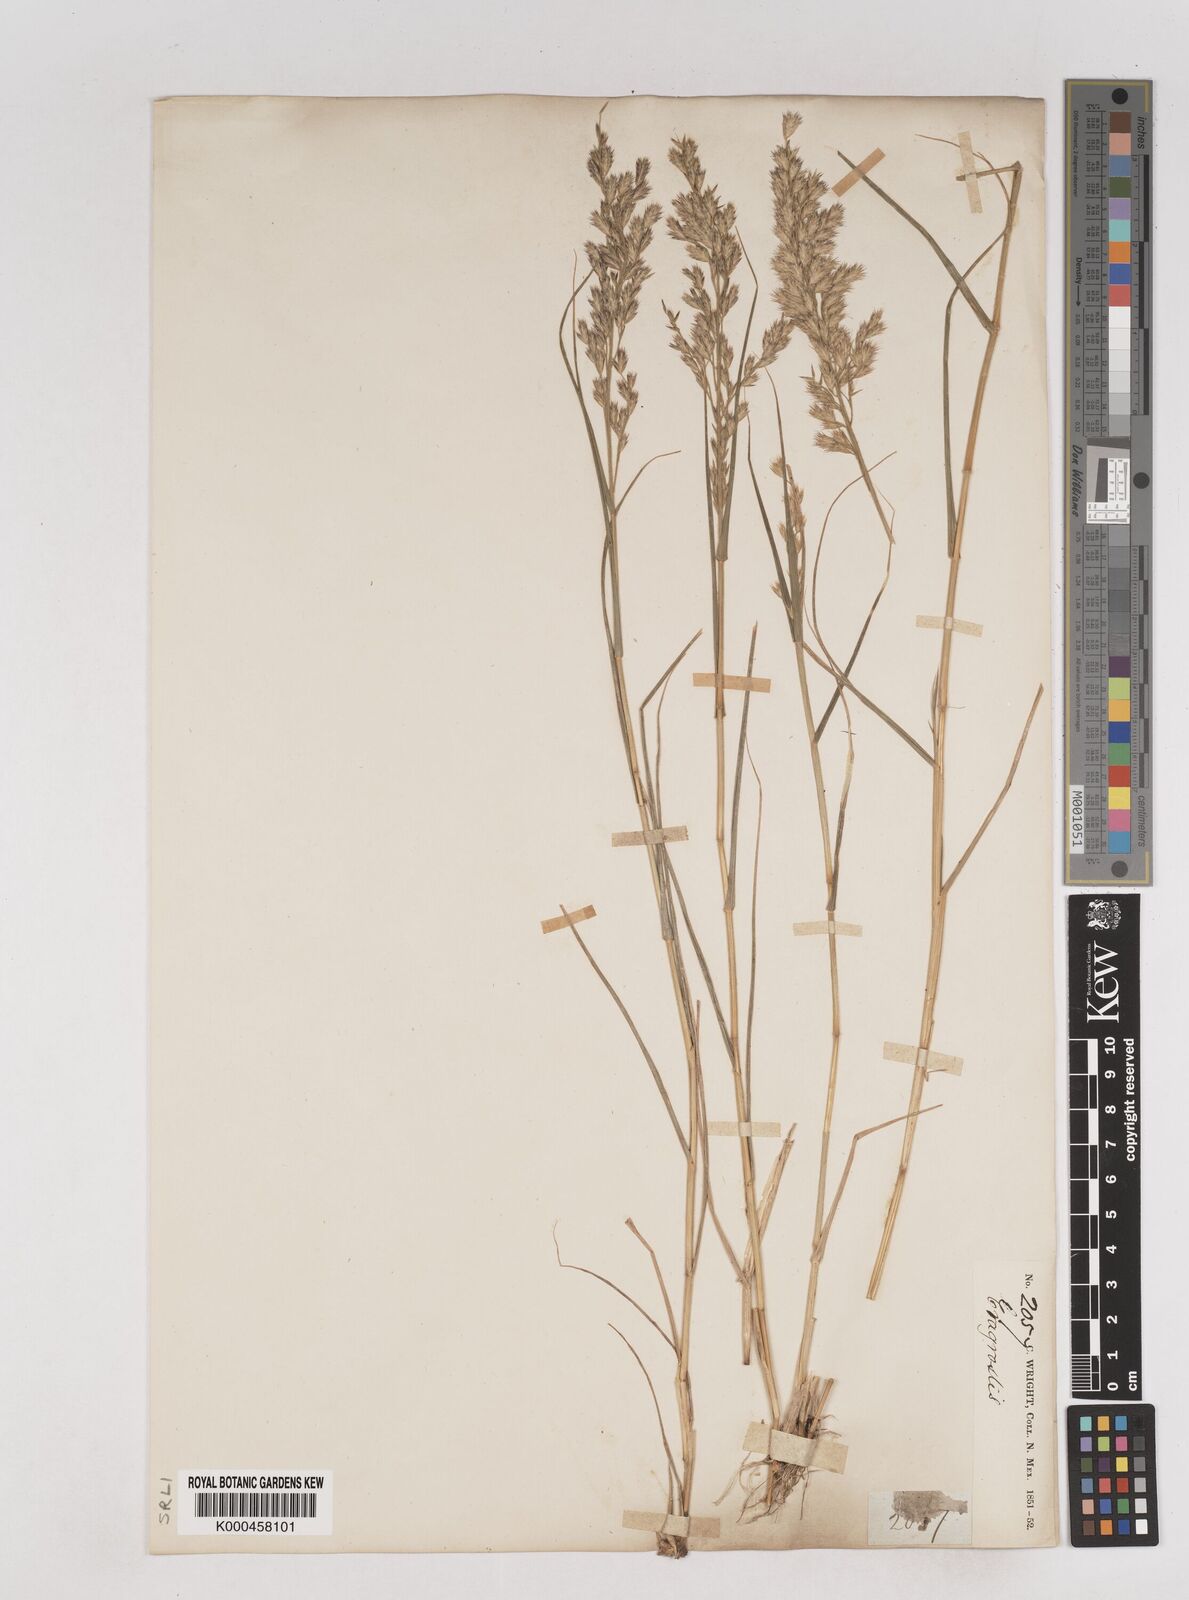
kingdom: Plantae
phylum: Tracheophyta
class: Liliopsida
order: Poales
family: Poaceae
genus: Cottea
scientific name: Cottea
